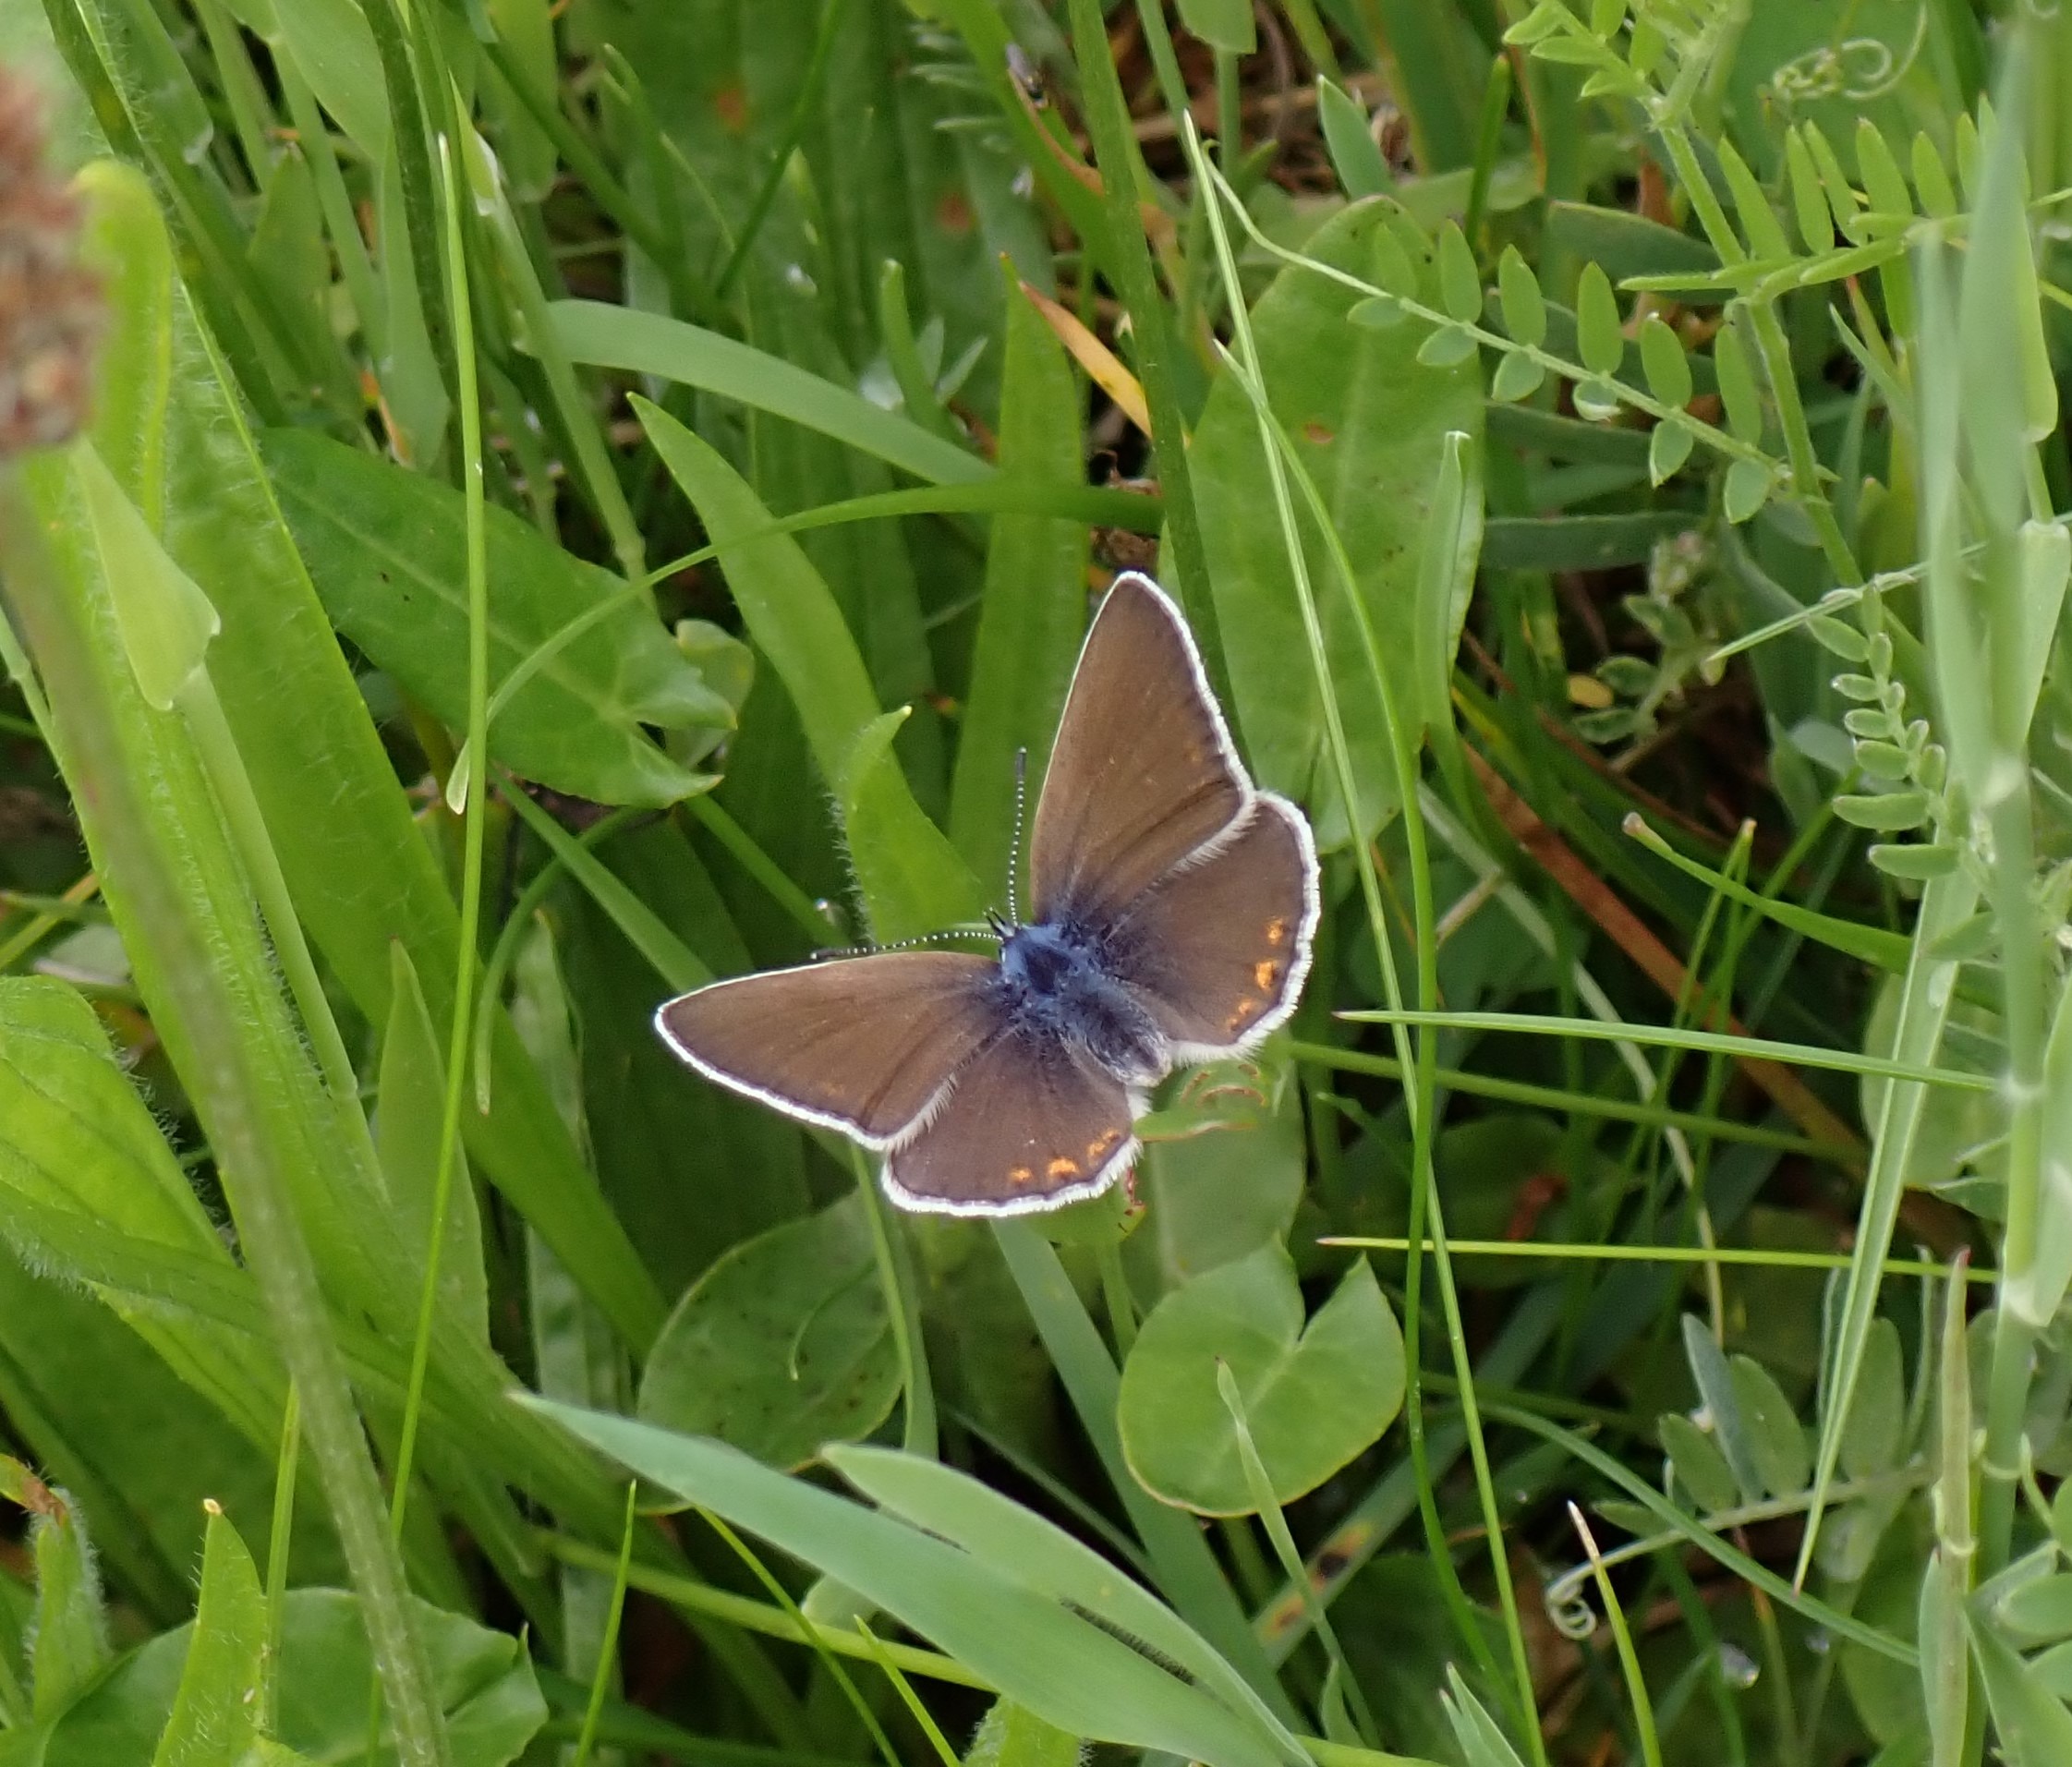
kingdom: Animalia
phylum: Arthropoda
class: Insecta
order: Lepidoptera
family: Lycaenidae
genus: Plebejus
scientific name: Plebejus amanda
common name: Isblåfugl
